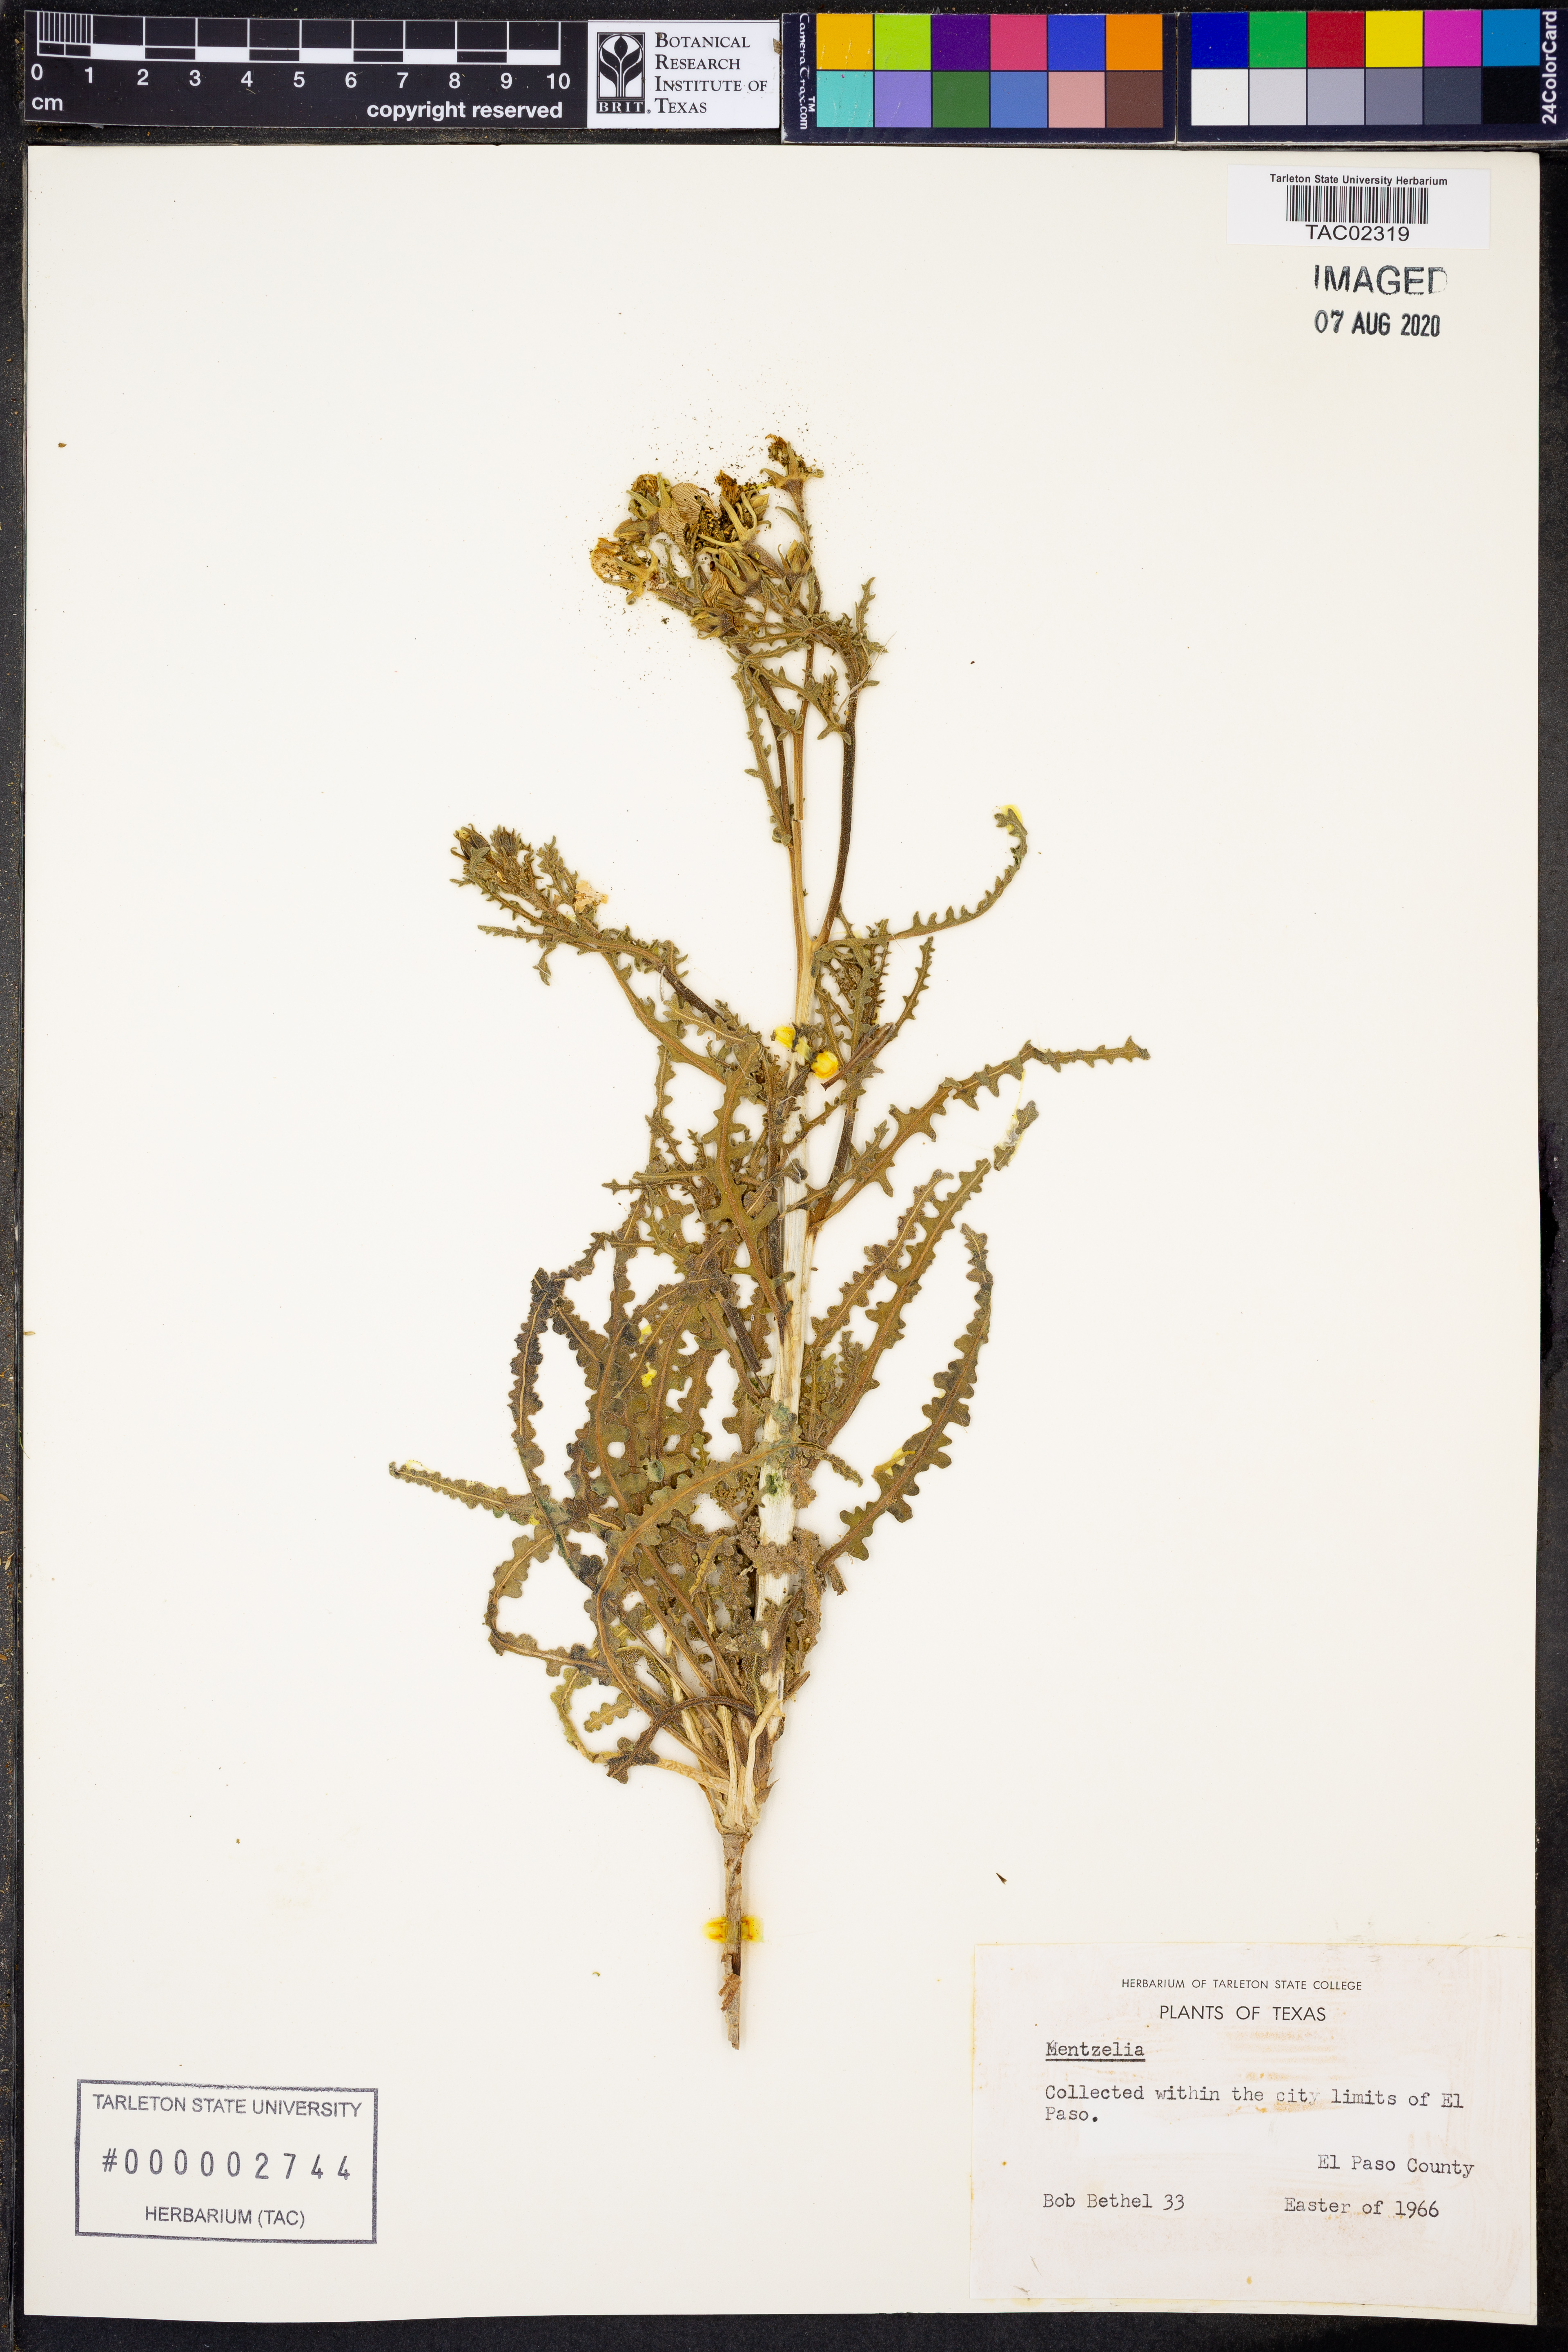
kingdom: Plantae
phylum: Tracheophyta
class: Magnoliopsida
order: Cornales
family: Loasaceae
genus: Mentzelia
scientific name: Mentzelia
